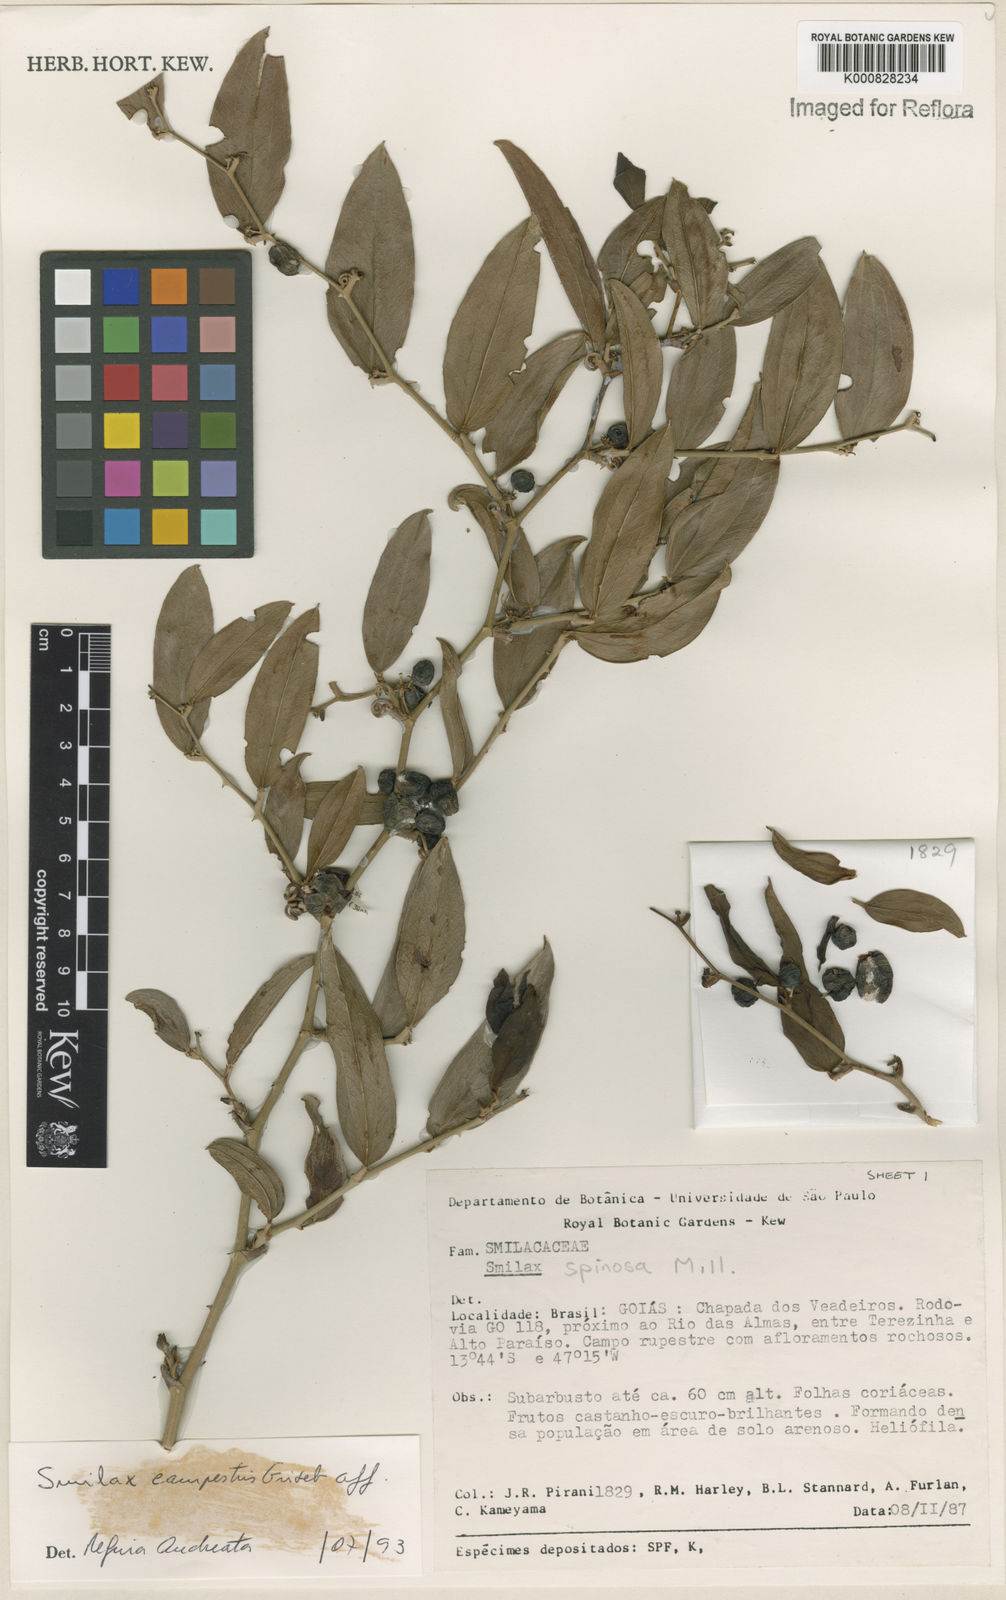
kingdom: Plantae
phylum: Tracheophyta
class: Liliopsida
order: Liliales
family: Smilacaceae
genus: Smilax
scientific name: Smilax campestris
